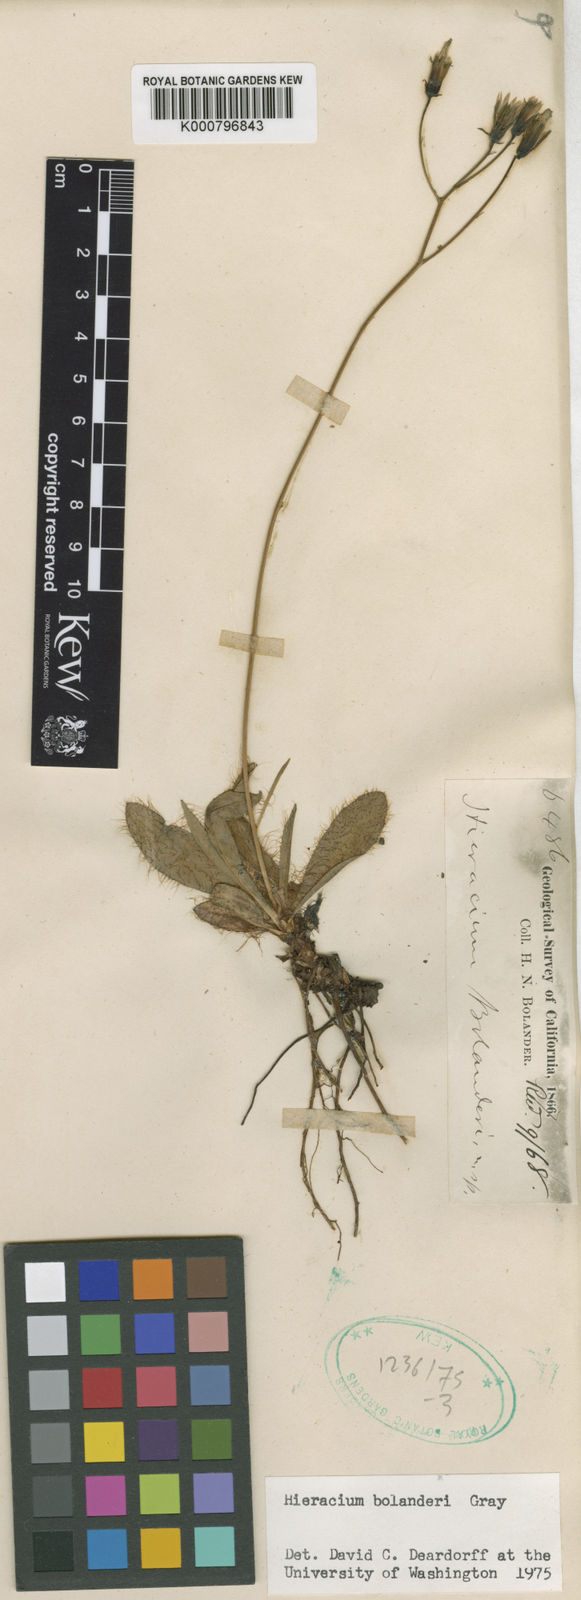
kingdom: Plantae
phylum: Tracheophyta
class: Magnoliopsida
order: Asterales
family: Asteraceae
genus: Hieracium
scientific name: Hieracium bolanderi
